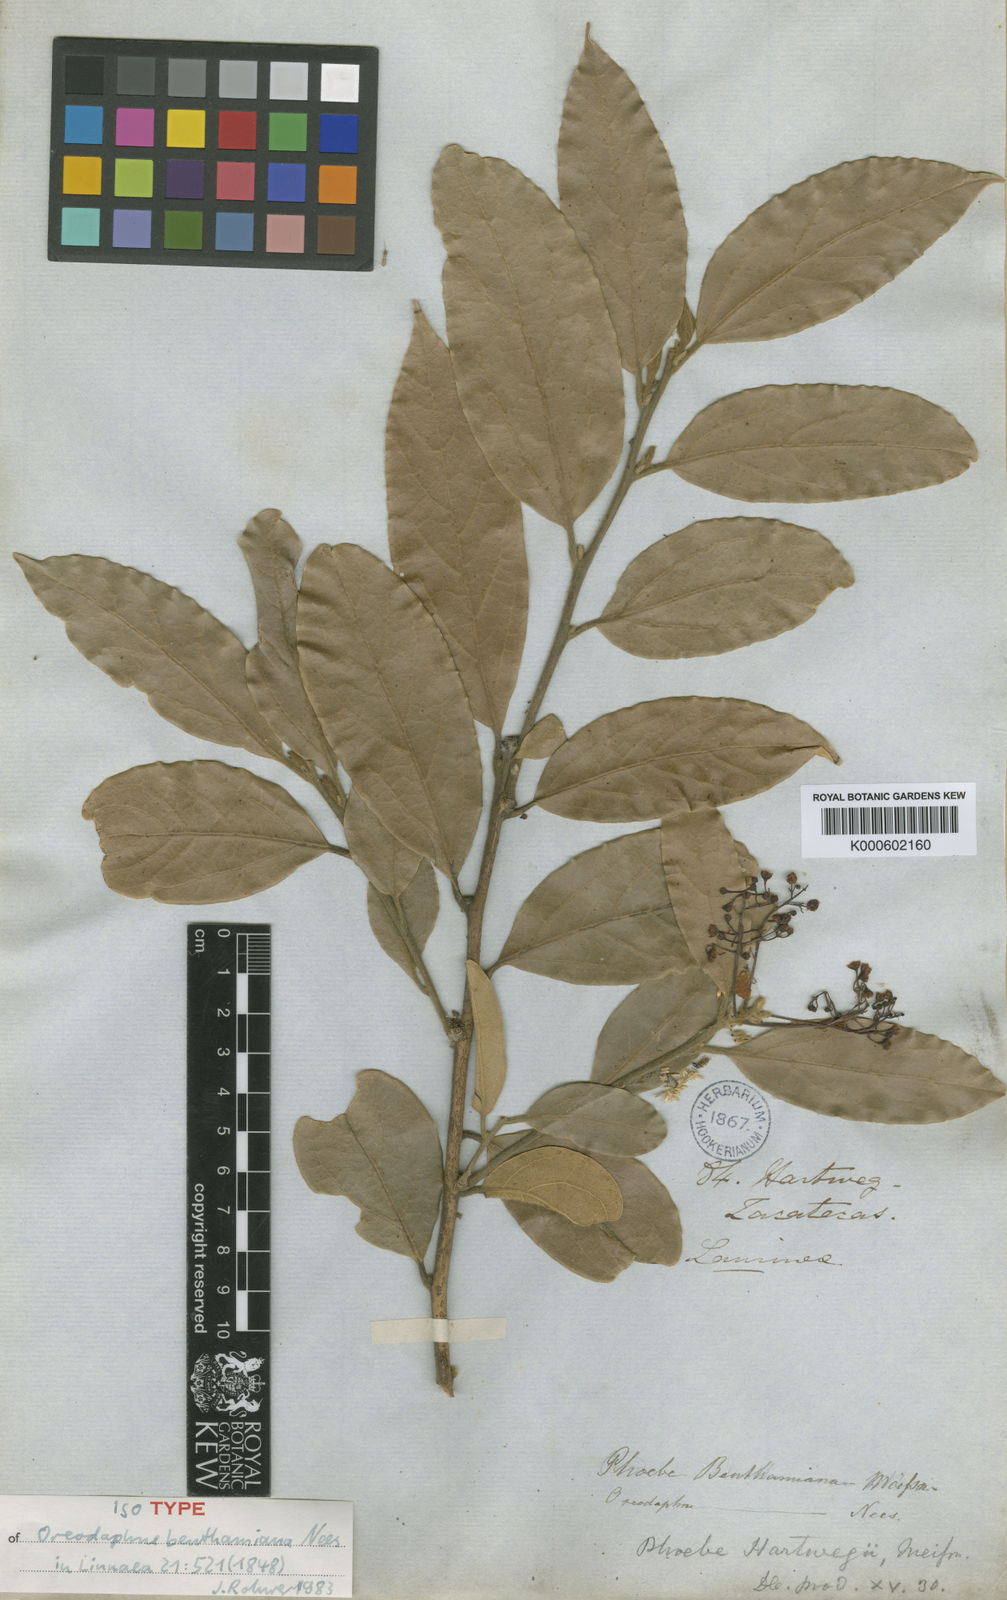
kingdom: Plantae
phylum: Tracheophyta
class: Magnoliopsida
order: Laurales
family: Lauraceae
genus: Aiouea
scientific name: Aiouea pachypoda
